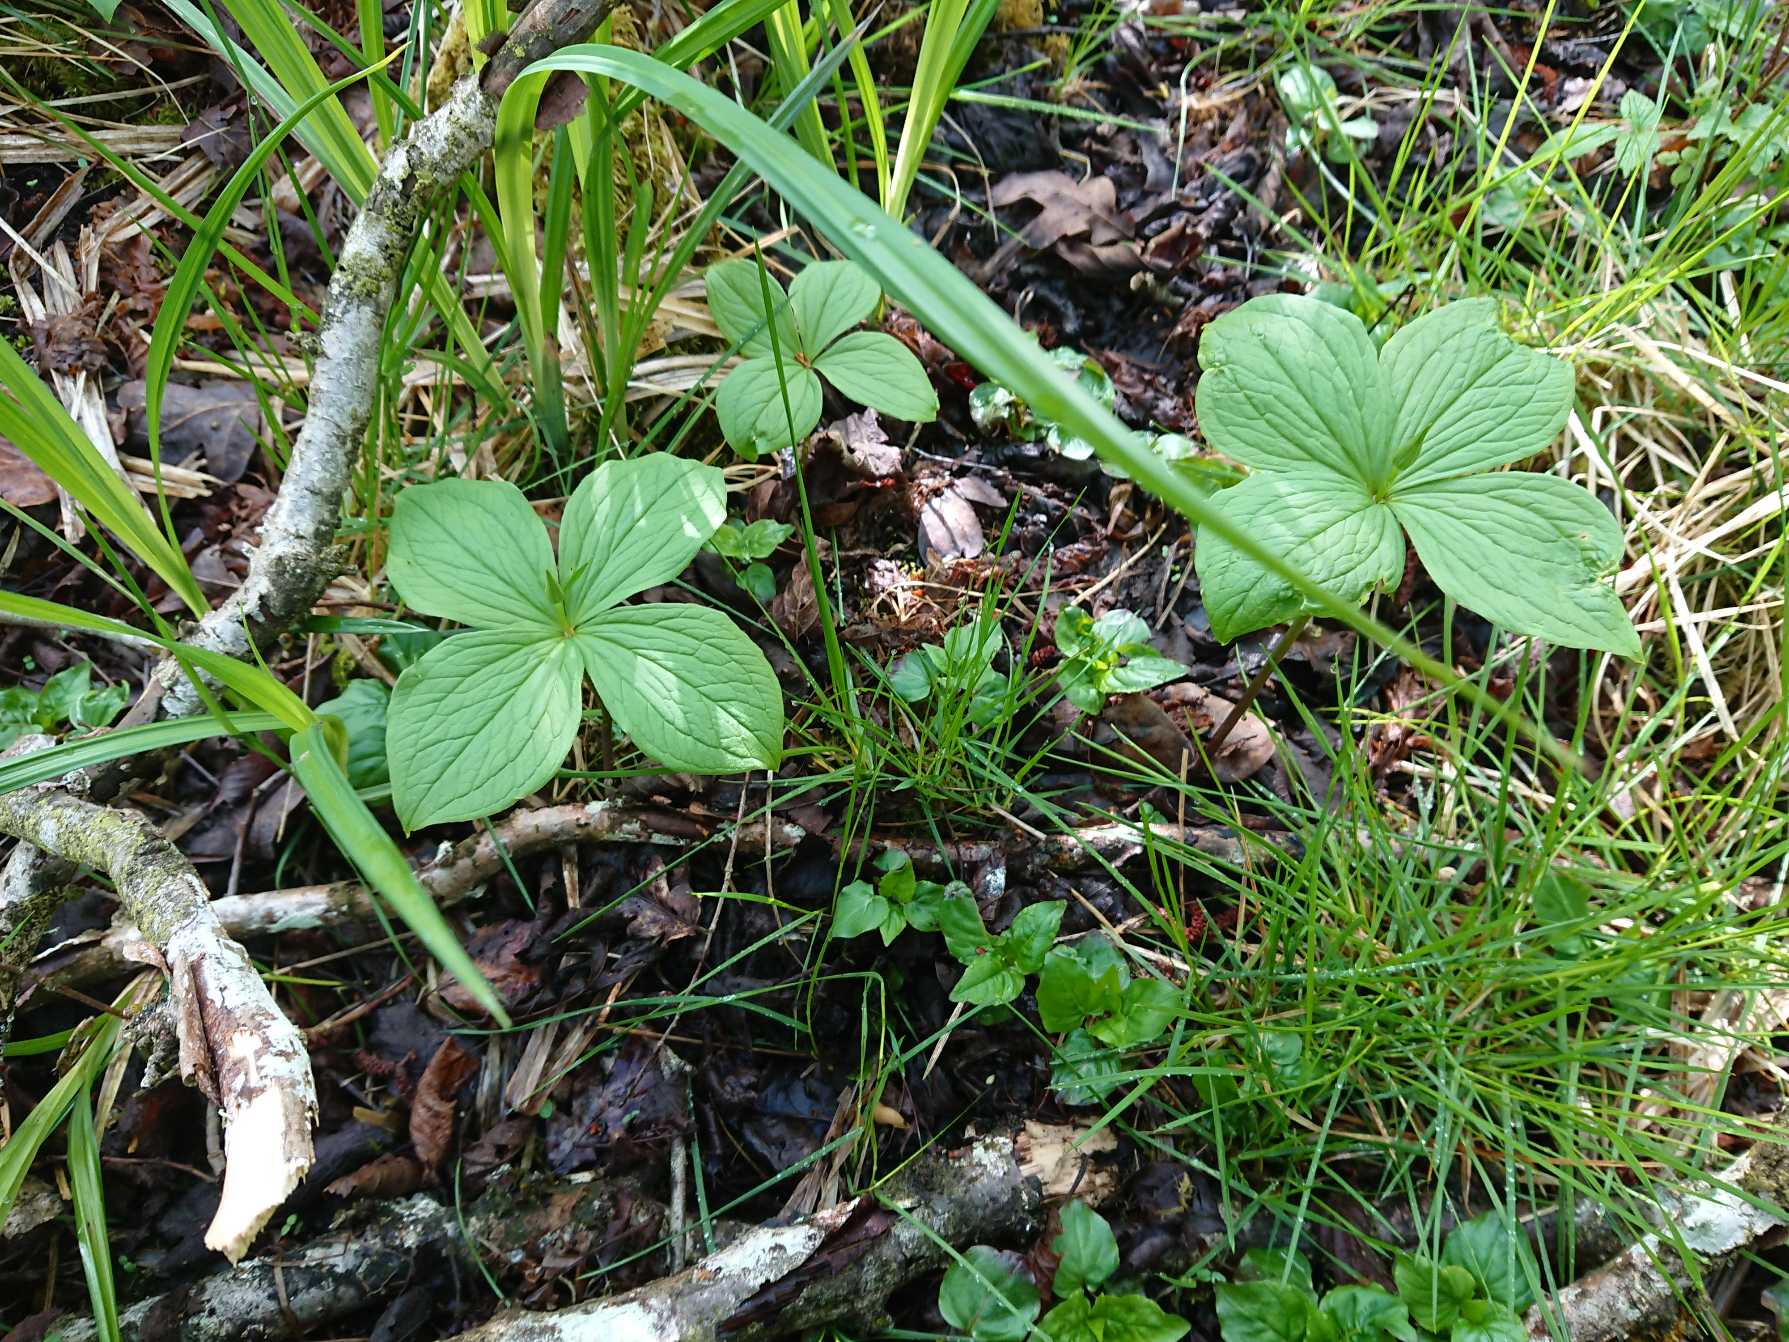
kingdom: Plantae
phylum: Tracheophyta
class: Liliopsida
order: Liliales
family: Melanthiaceae
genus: Paris
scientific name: Paris quadrifolia
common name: Firblad
